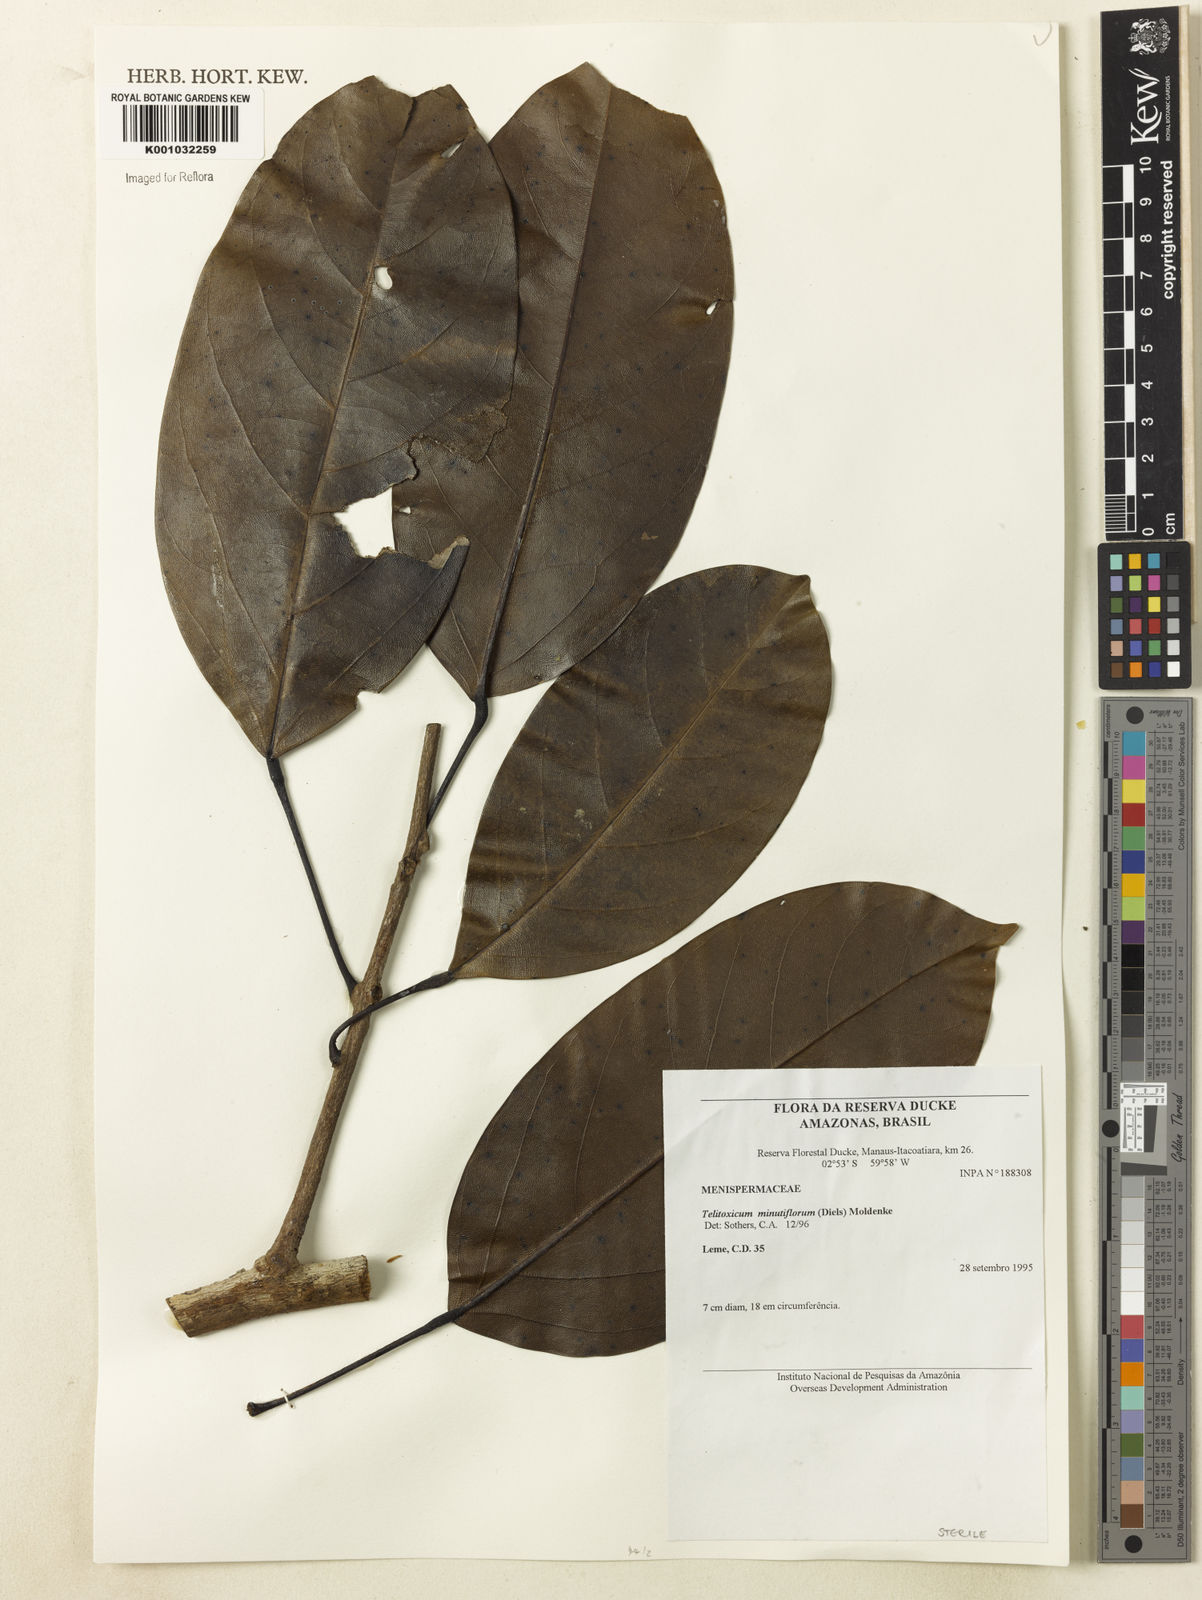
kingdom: Plantae
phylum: Tracheophyta
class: Magnoliopsida
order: Ranunculales
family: Menispermaceae
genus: Telitoxicum
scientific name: Telitoxicum minutiflorum
